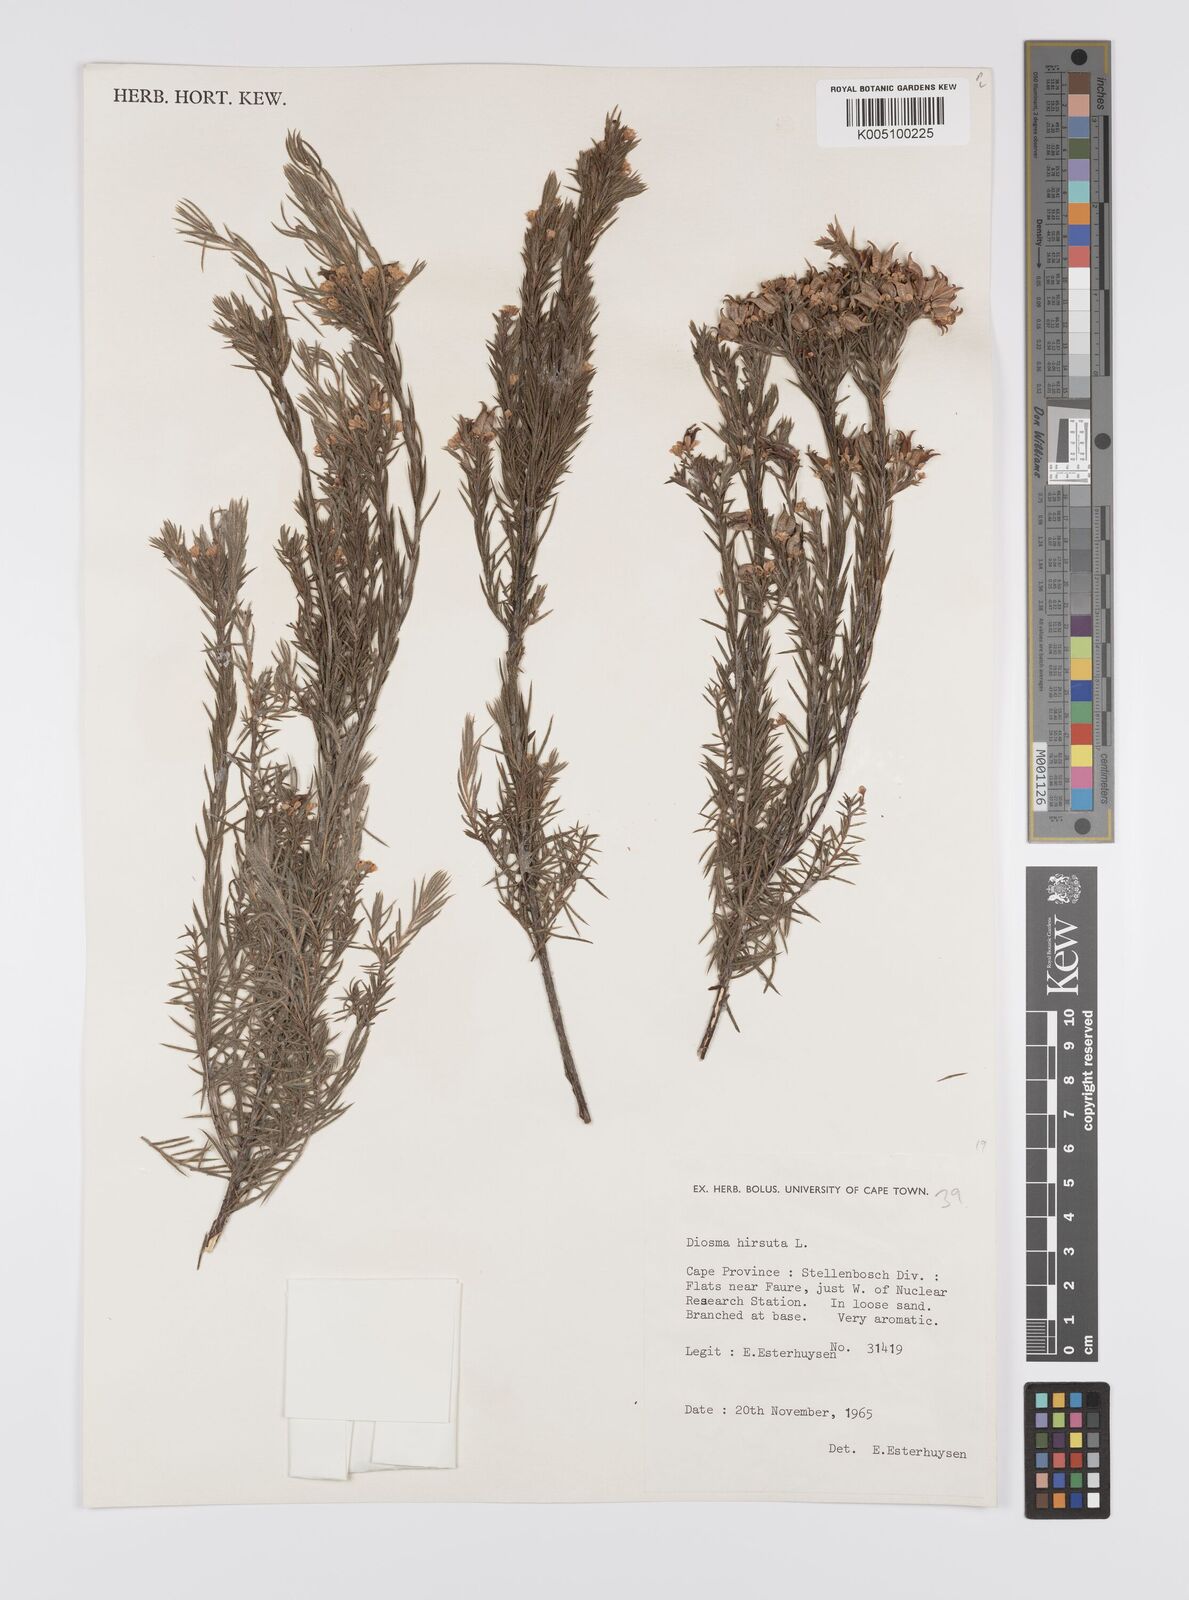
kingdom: Plantae
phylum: Tracheophyta
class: Magnoliopsida
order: Sapindales
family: Rutaceae
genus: Diosma
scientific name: Diosma hirsuta
